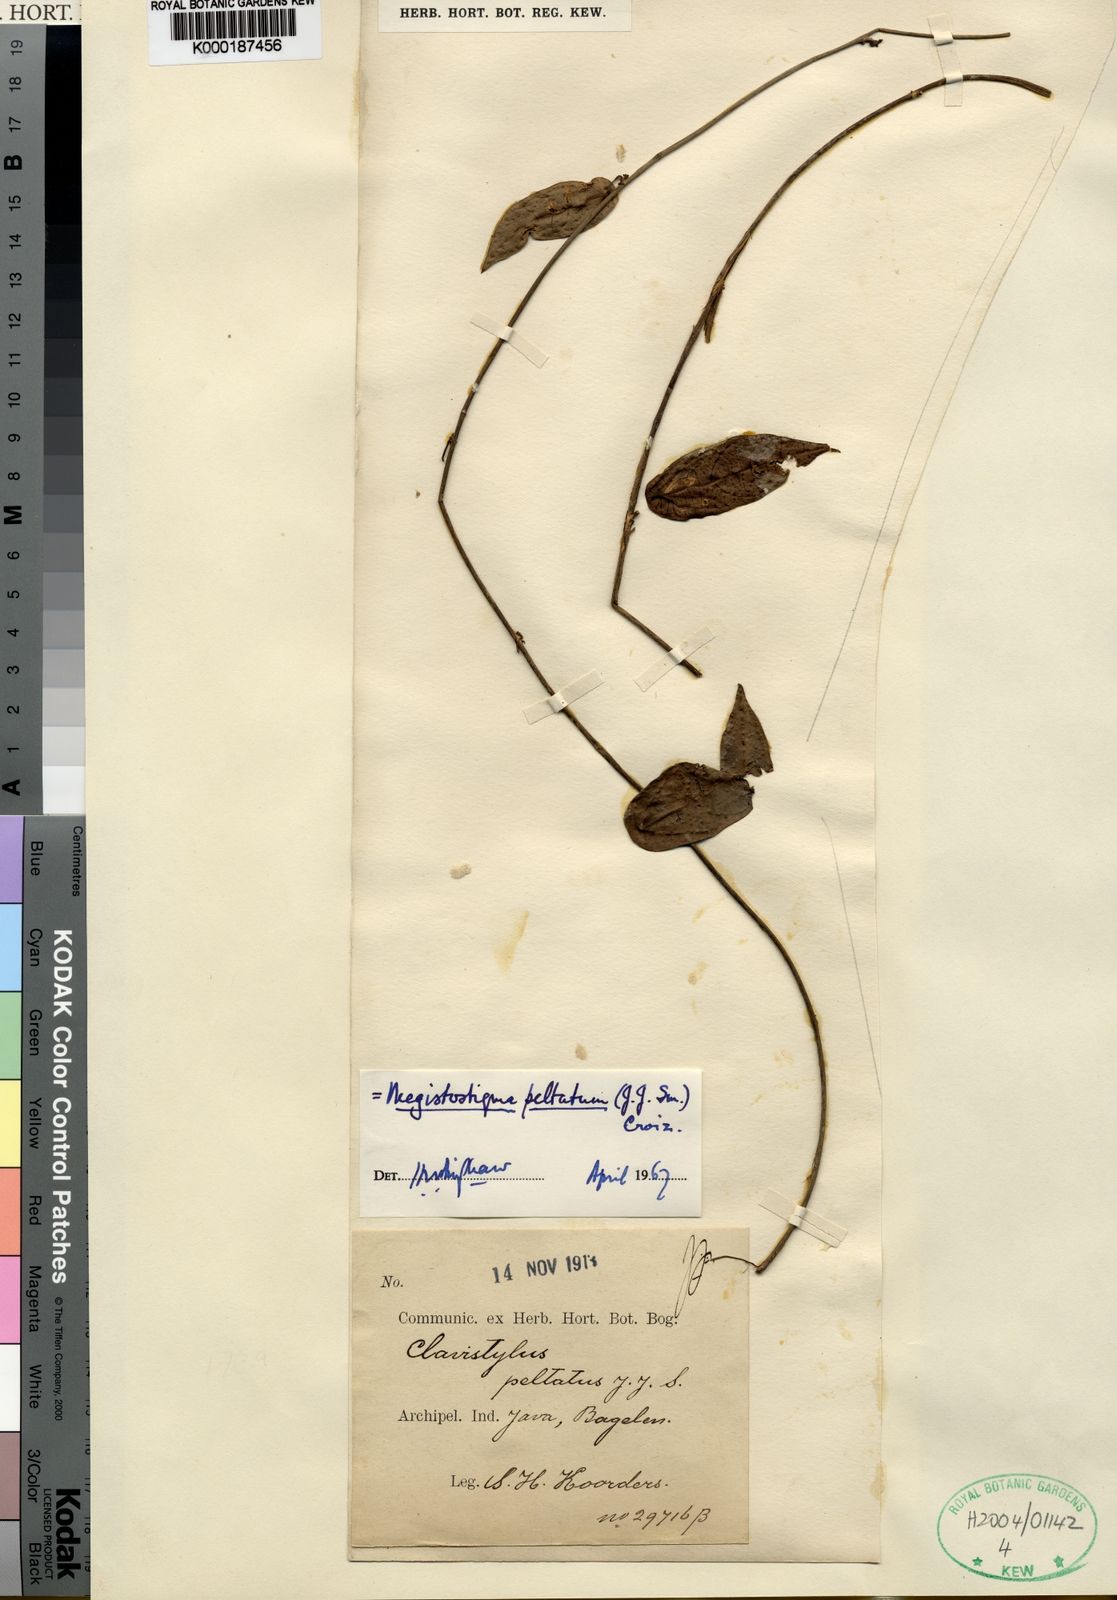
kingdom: Plantae
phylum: Tracheophyta
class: Magnoliopsida
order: Malpighiales
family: Euphorbiaceae
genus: Megistostigma
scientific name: Megistostigma peltatum
